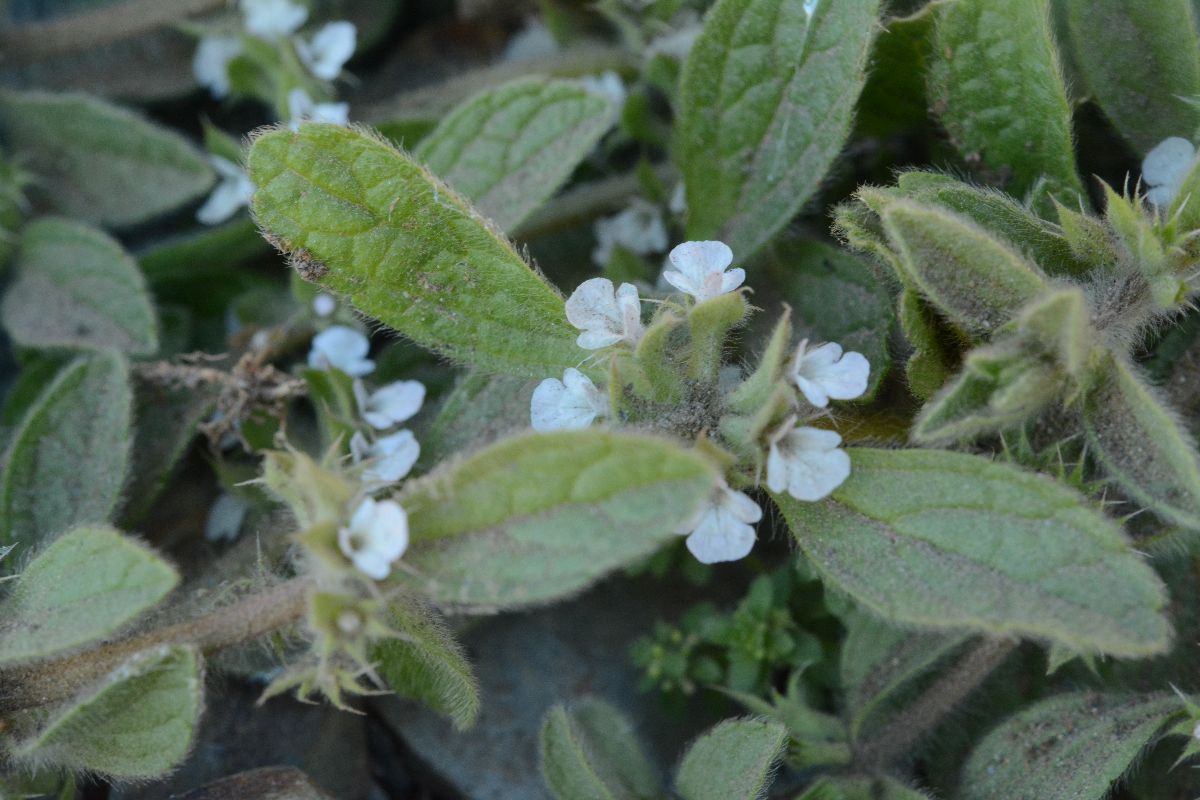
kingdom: Plantae
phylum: Tracheophyta
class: Magnoliopsida
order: Lamiales
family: Lamiaceae
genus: Sideritis
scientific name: Sideritis romana
